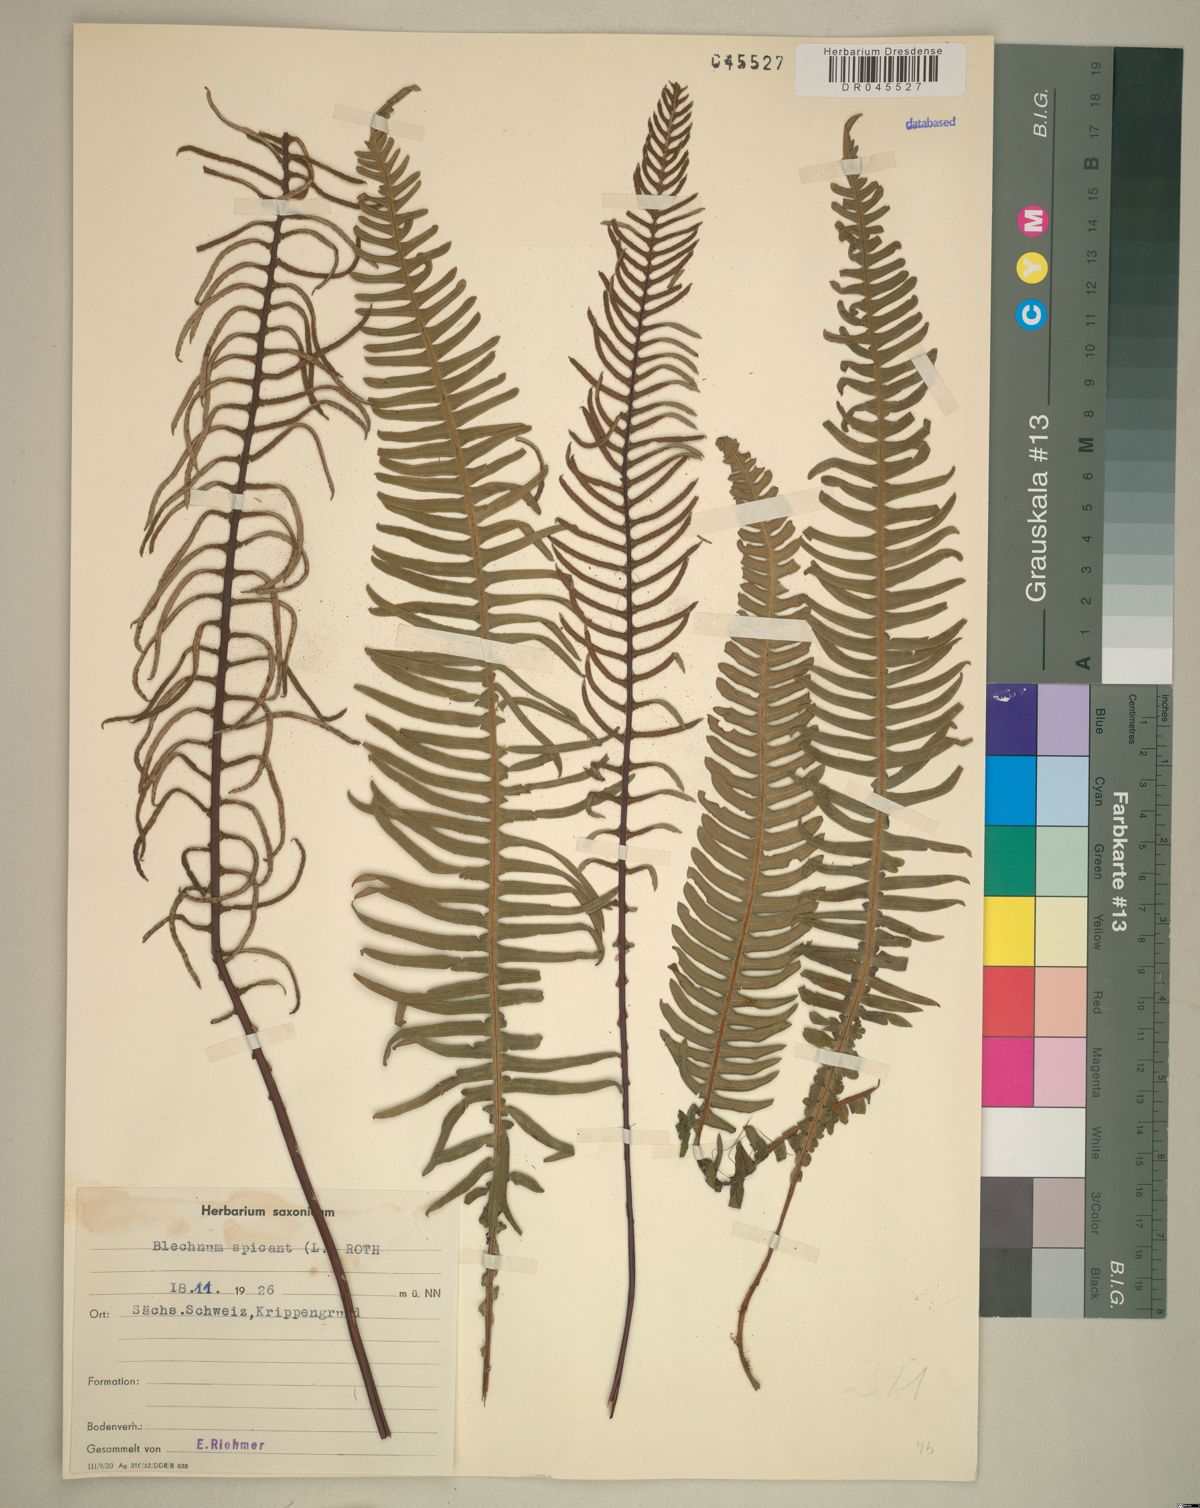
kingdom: Plantae
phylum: Tracheophyta
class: Polypodiopsida
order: Polypodiales
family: Blechnaceae
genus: Struthiopteris
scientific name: Struthiopteris spicant
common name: Deer fern
